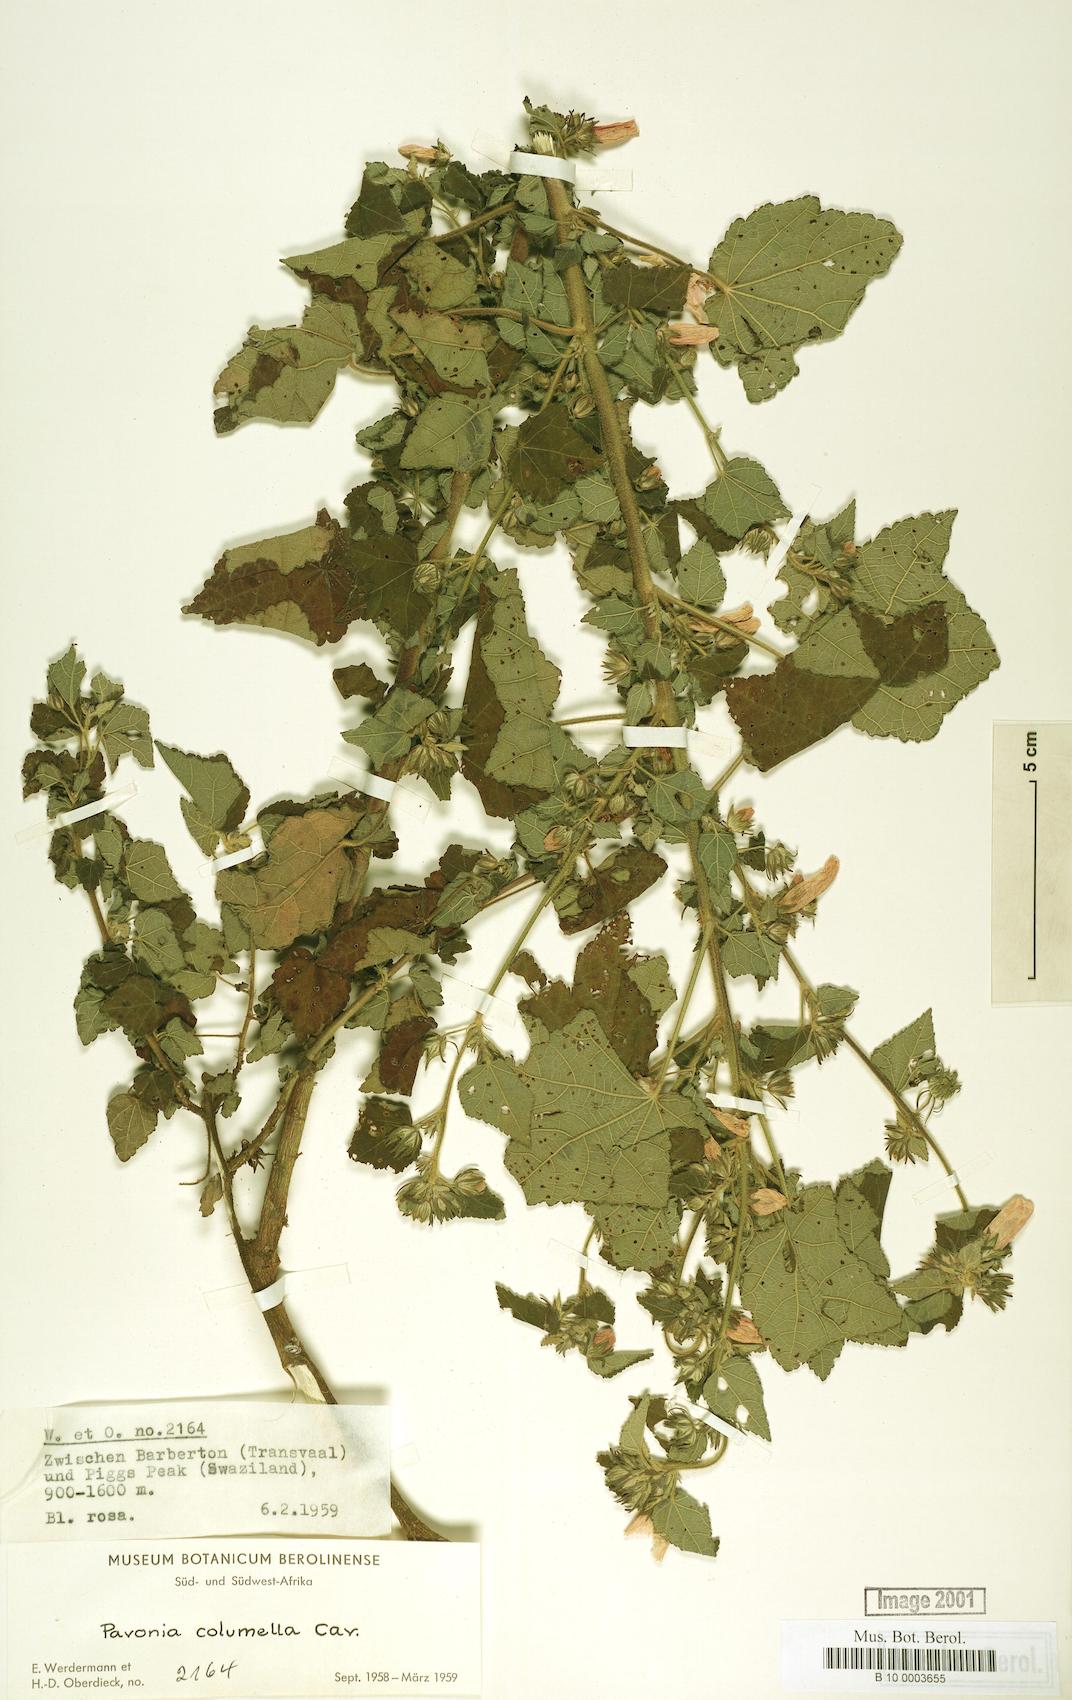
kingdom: Plantae
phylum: Tracheophyta
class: Magnoliopsida
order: Malvales
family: Malvaceae
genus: Pavonia
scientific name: Pavonia columella
